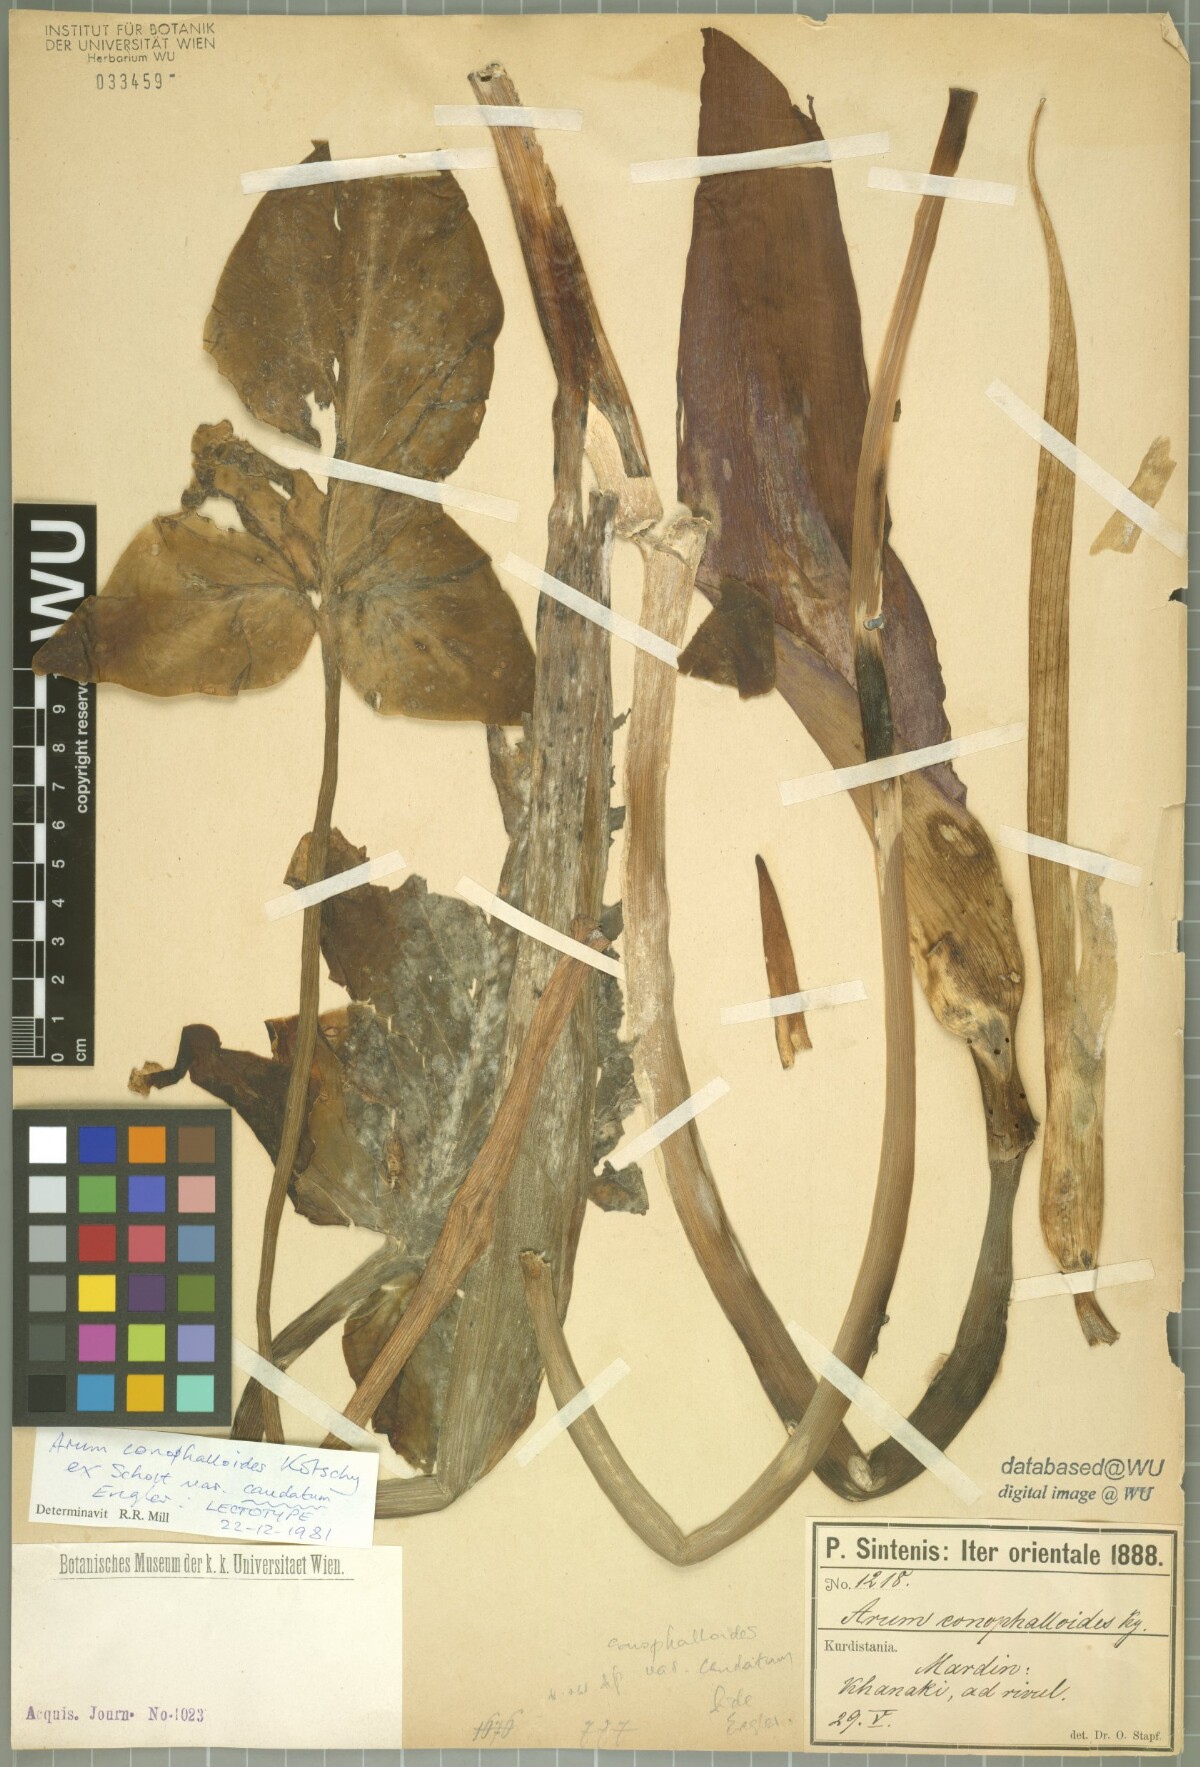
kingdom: Plantae
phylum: Tracheophyta
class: Liliopsida
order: Alismatales
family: Araceae
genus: Arum
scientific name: Arum rupicola
